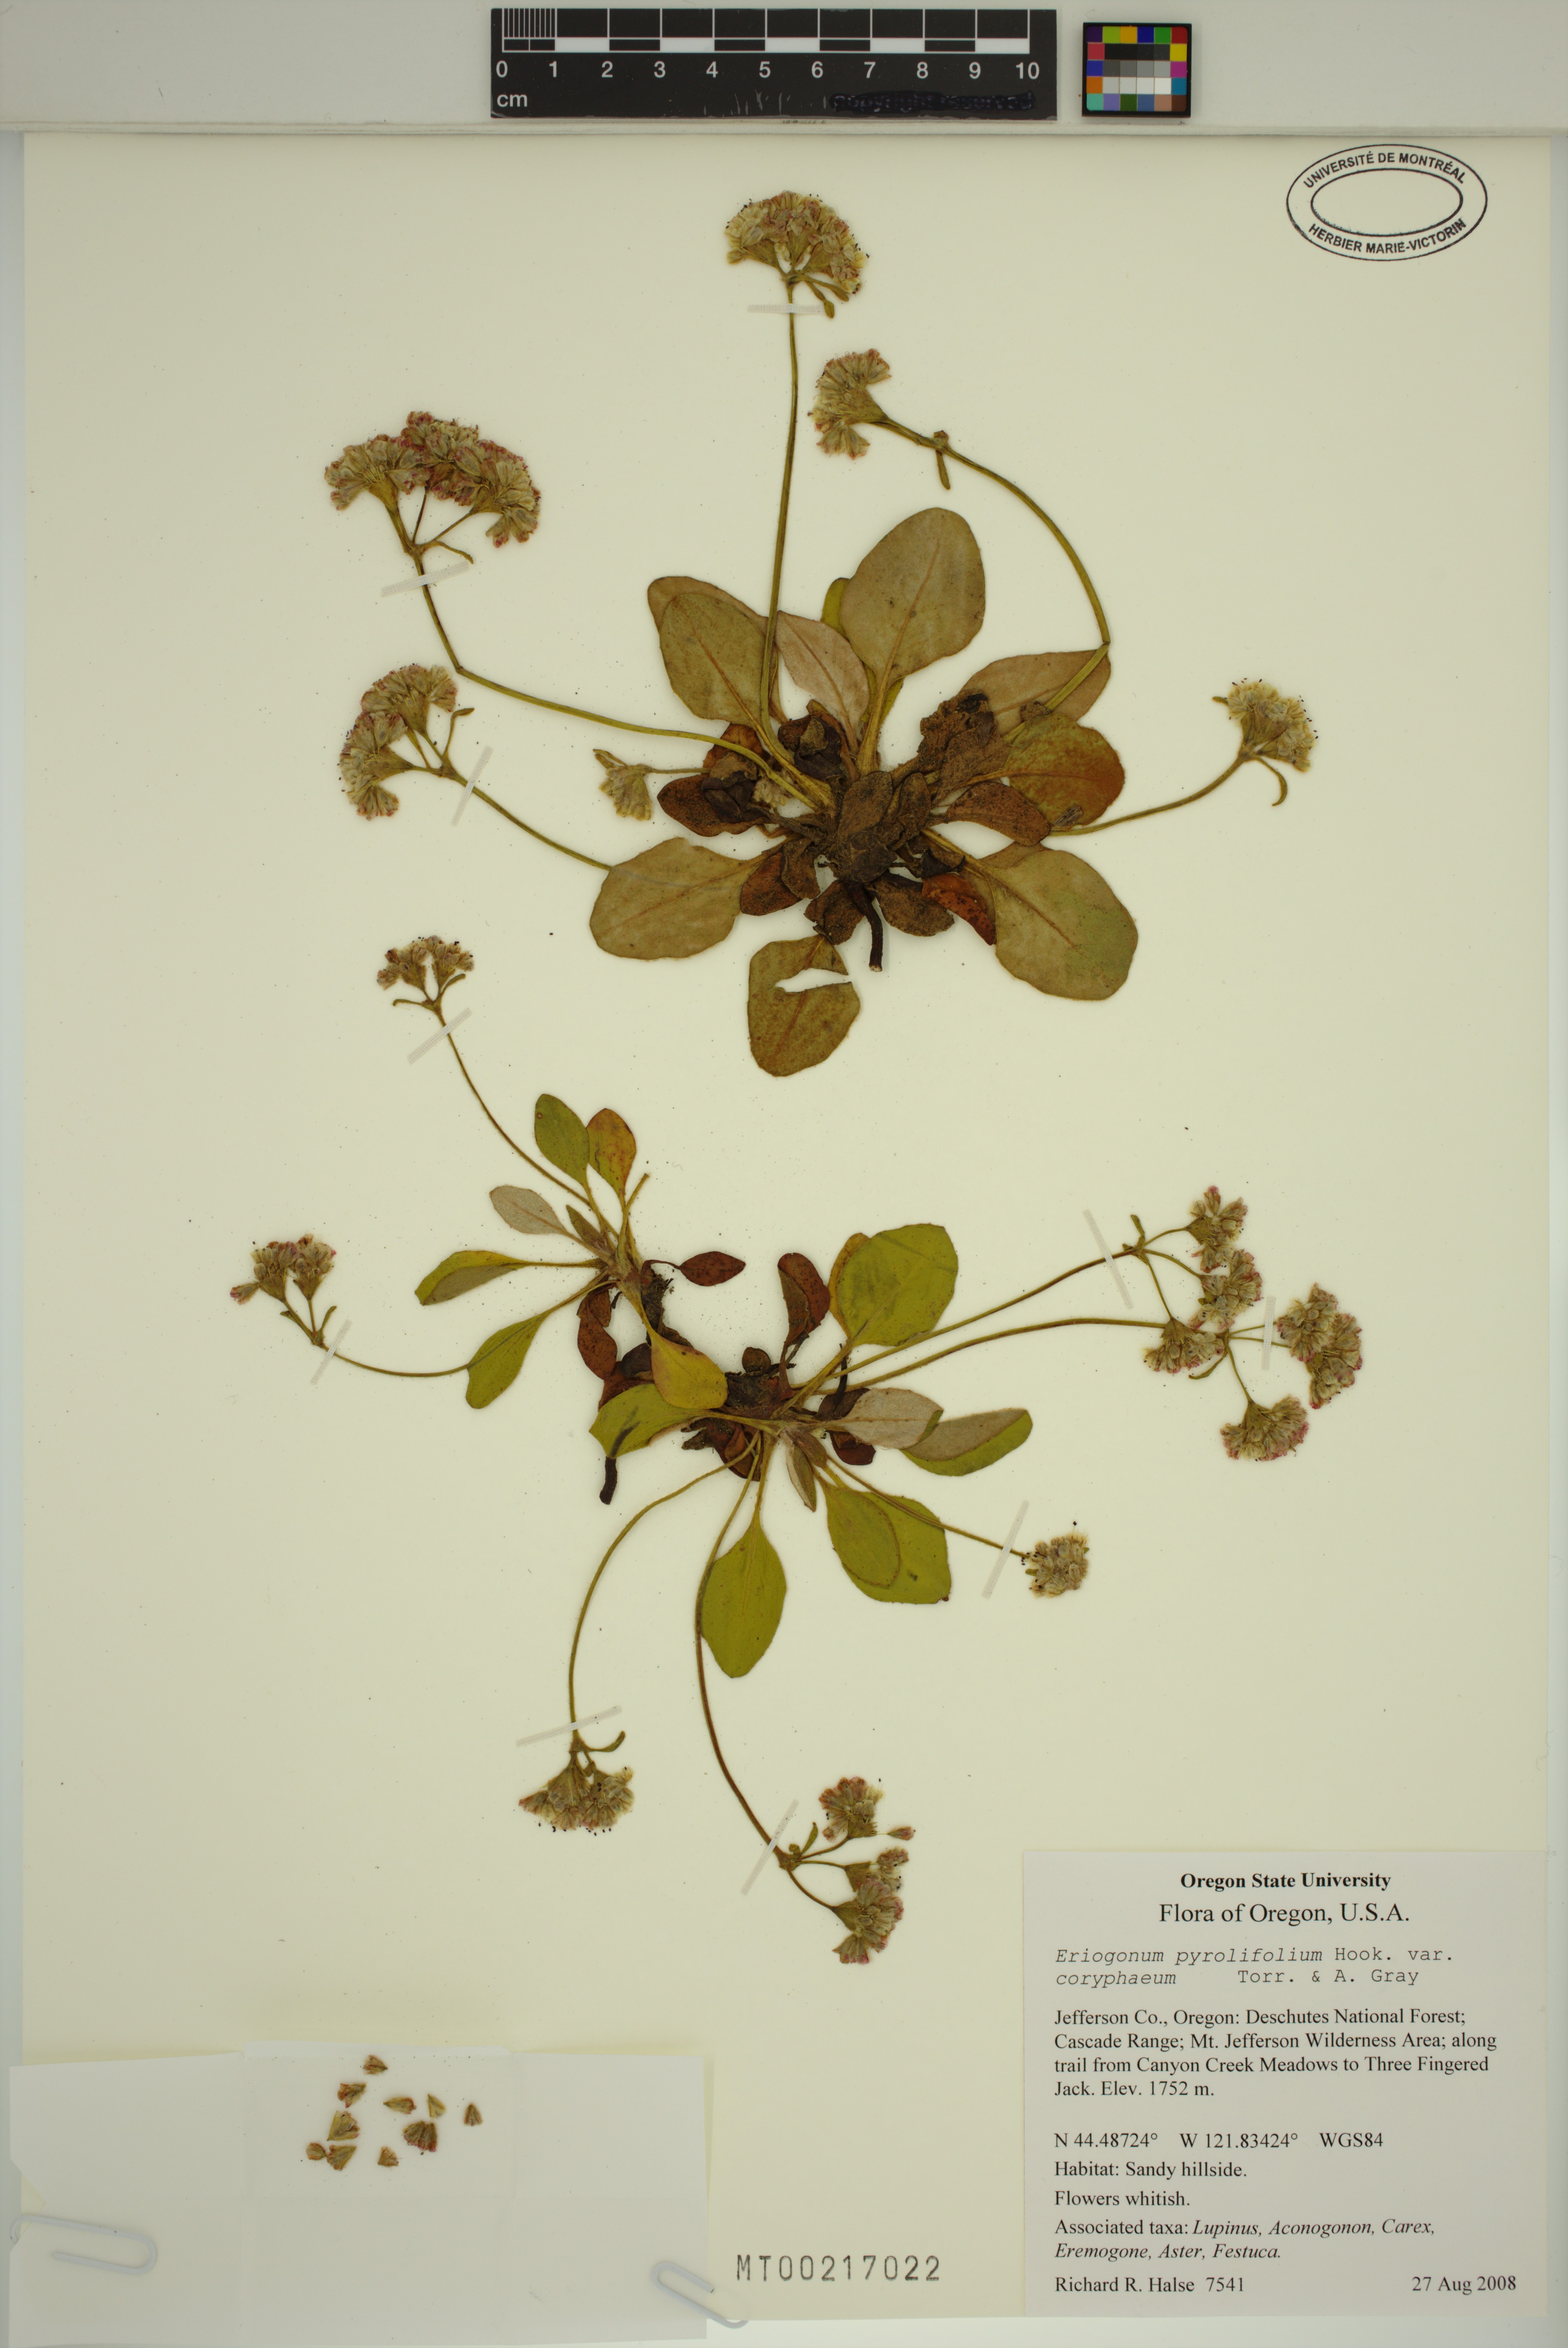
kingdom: Plantae
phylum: Tracheophyta
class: Magnoliopsida
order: Caryophyllales
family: Polygonaceae
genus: Eriogonum
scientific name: Eriogonum pyrolifolium
